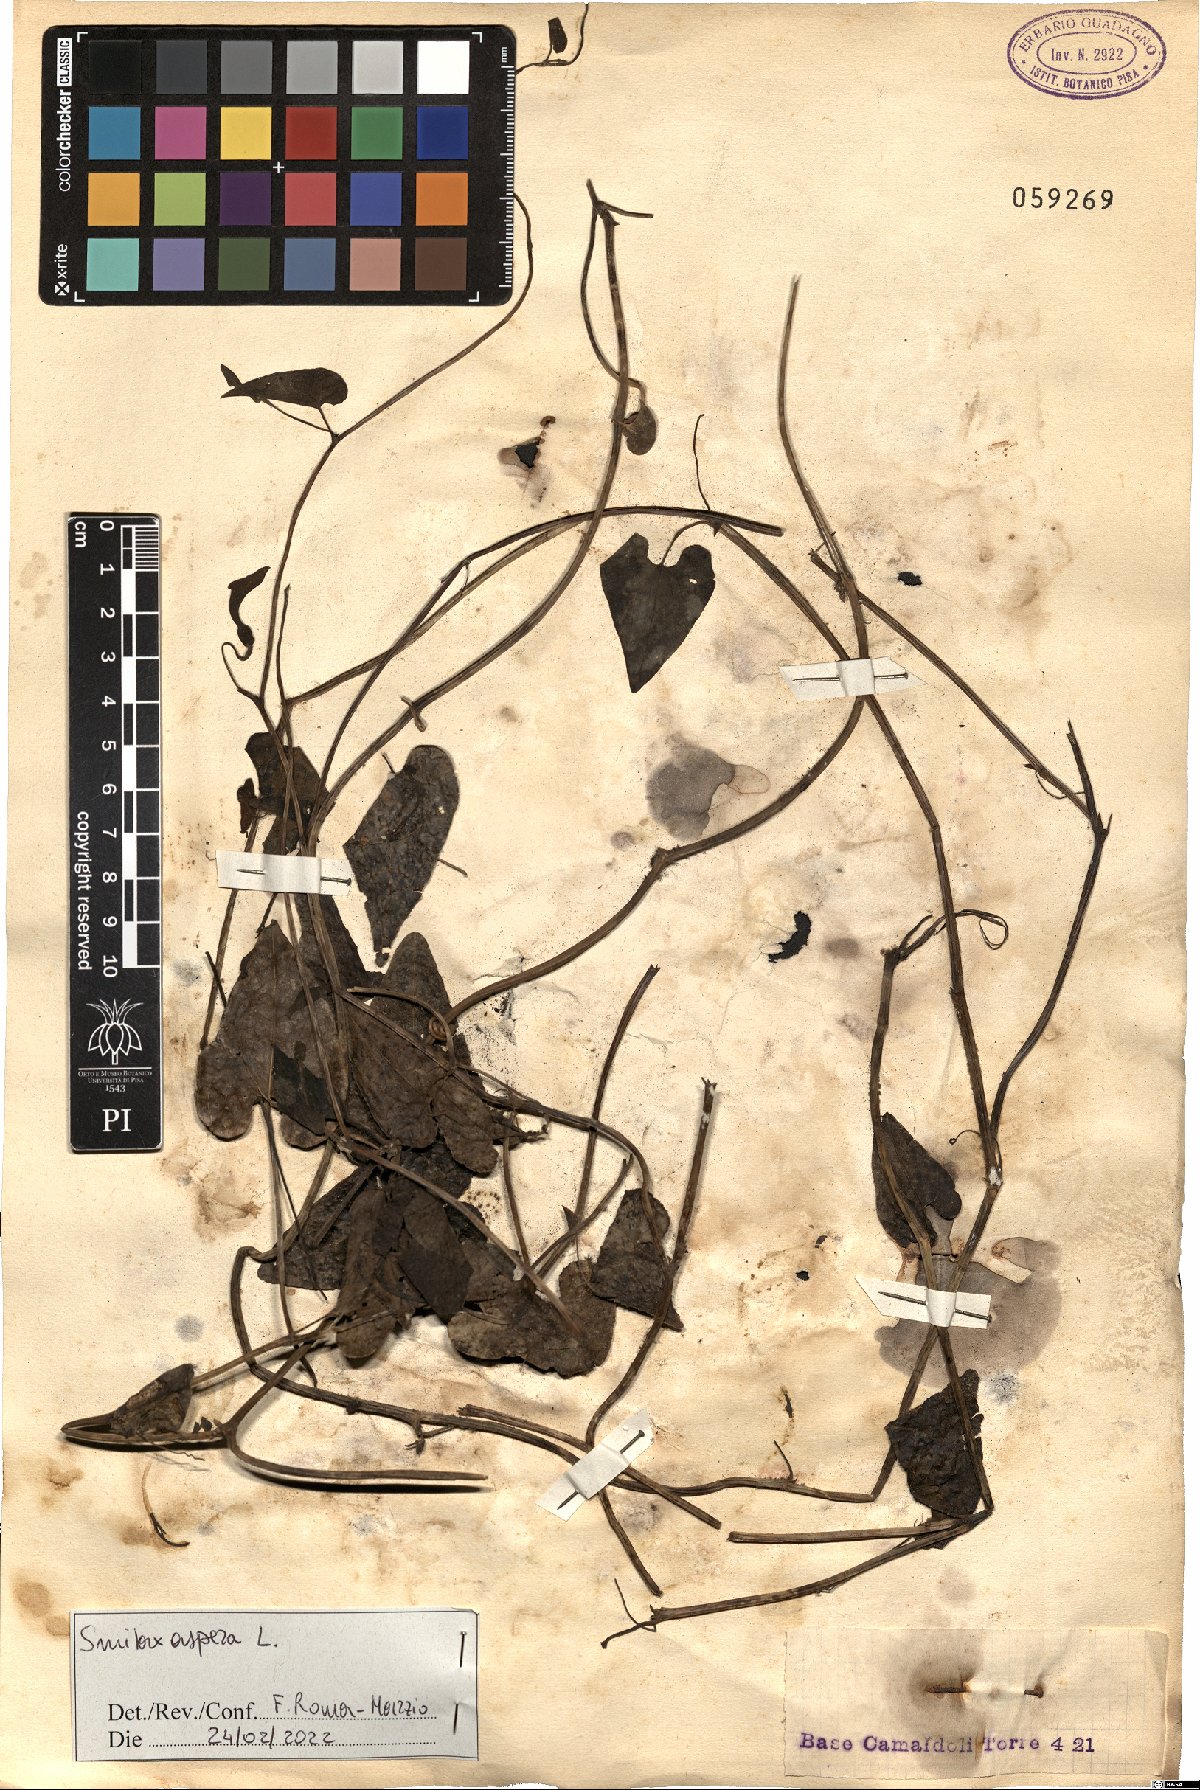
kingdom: Plantae
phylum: Tracheophyta
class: Liliopsida
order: Liliales
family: Smilacaceae
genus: Smilax
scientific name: Smilax aspera
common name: Common smilax
